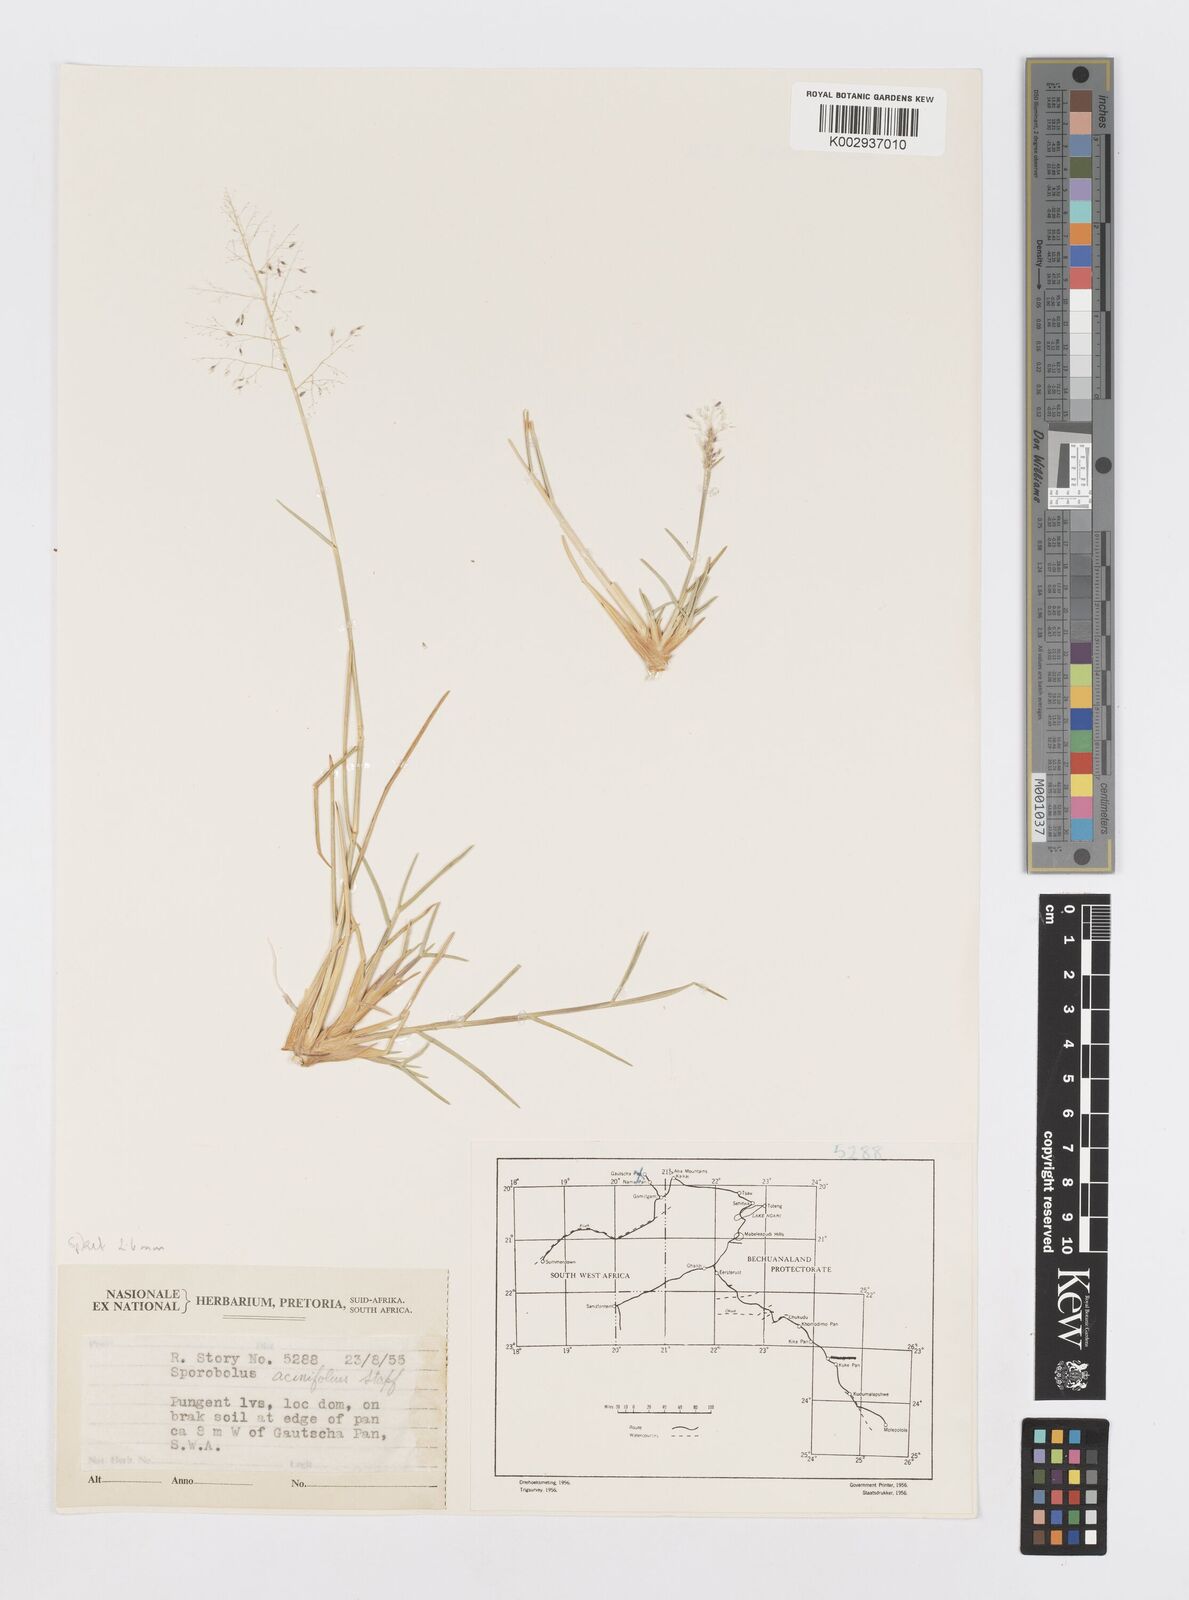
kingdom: Plantae
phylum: Tracheophyta
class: Liliopsida
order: Poales
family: Poaceae
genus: Sporobolus
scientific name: Sporobolus salsus
